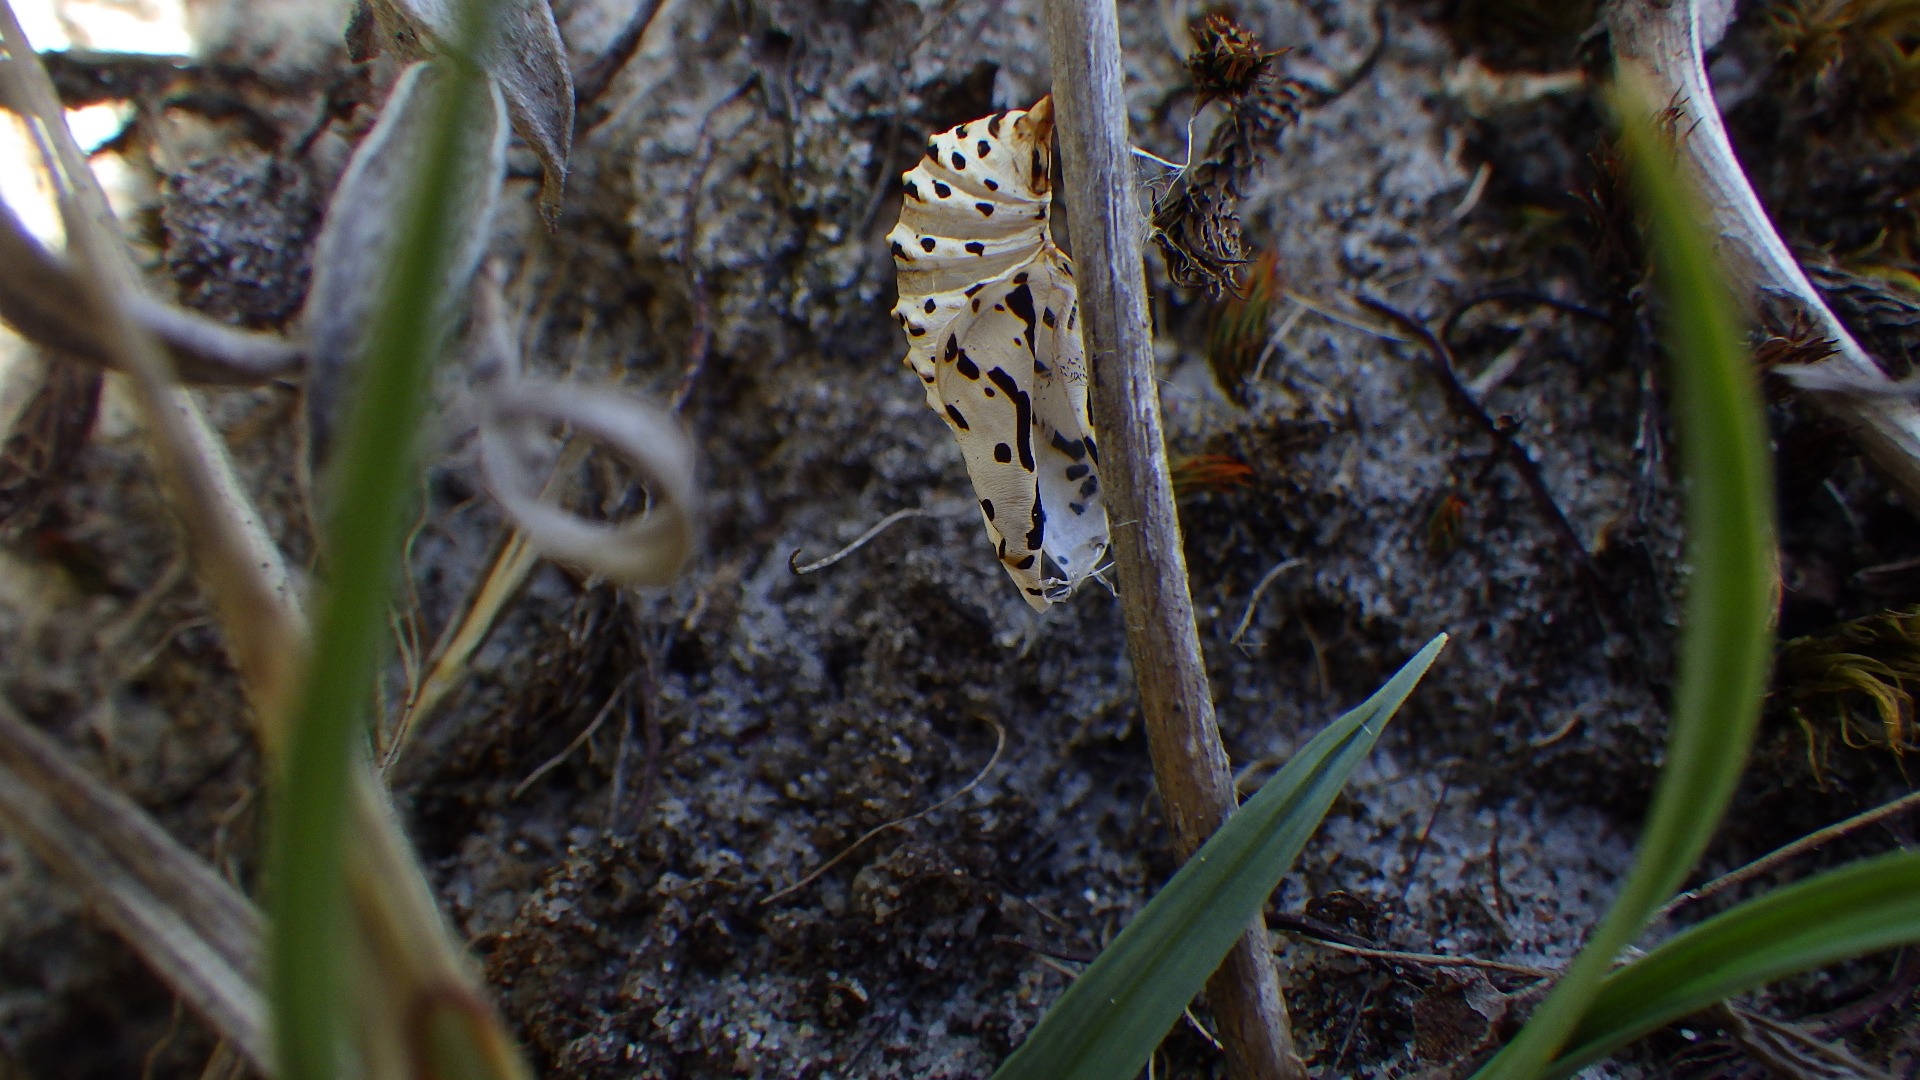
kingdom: Animalia
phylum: Arthropoda
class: Insecta
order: Lepidoptera
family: Nymphalidae
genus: Euphydryas
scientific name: Euphydryas aurinia
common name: Hedepletvinge
